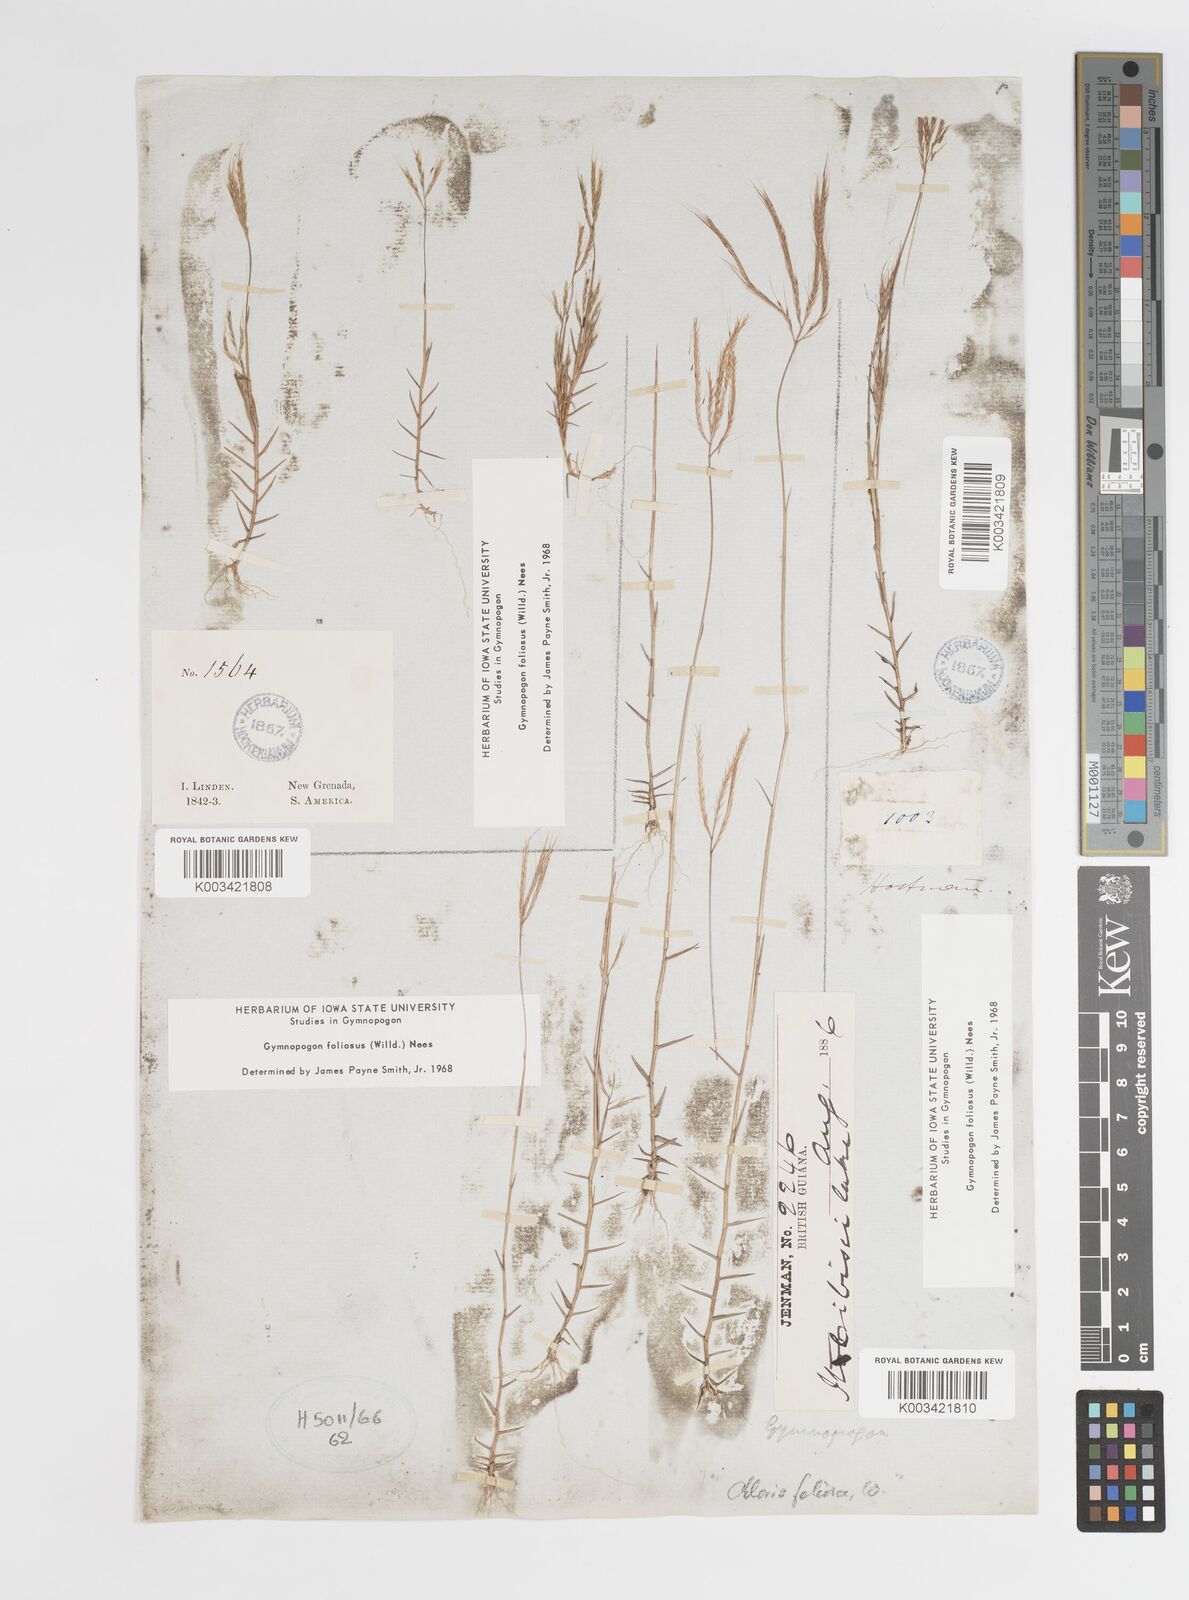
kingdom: Plantae
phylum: Tracheophyta
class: Liliopsida
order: Poales
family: Poaceae
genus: Gymnopogon
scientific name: Gymnopogon foliosus
